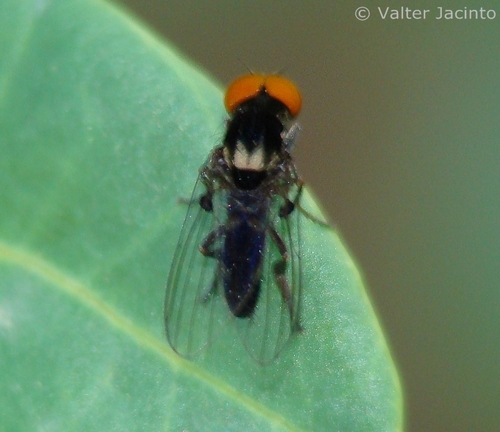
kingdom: Animalia
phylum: Arthropoda
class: Insecta
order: Diptera
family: Platypezidae
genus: Callomyia
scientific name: Callomyia dives
